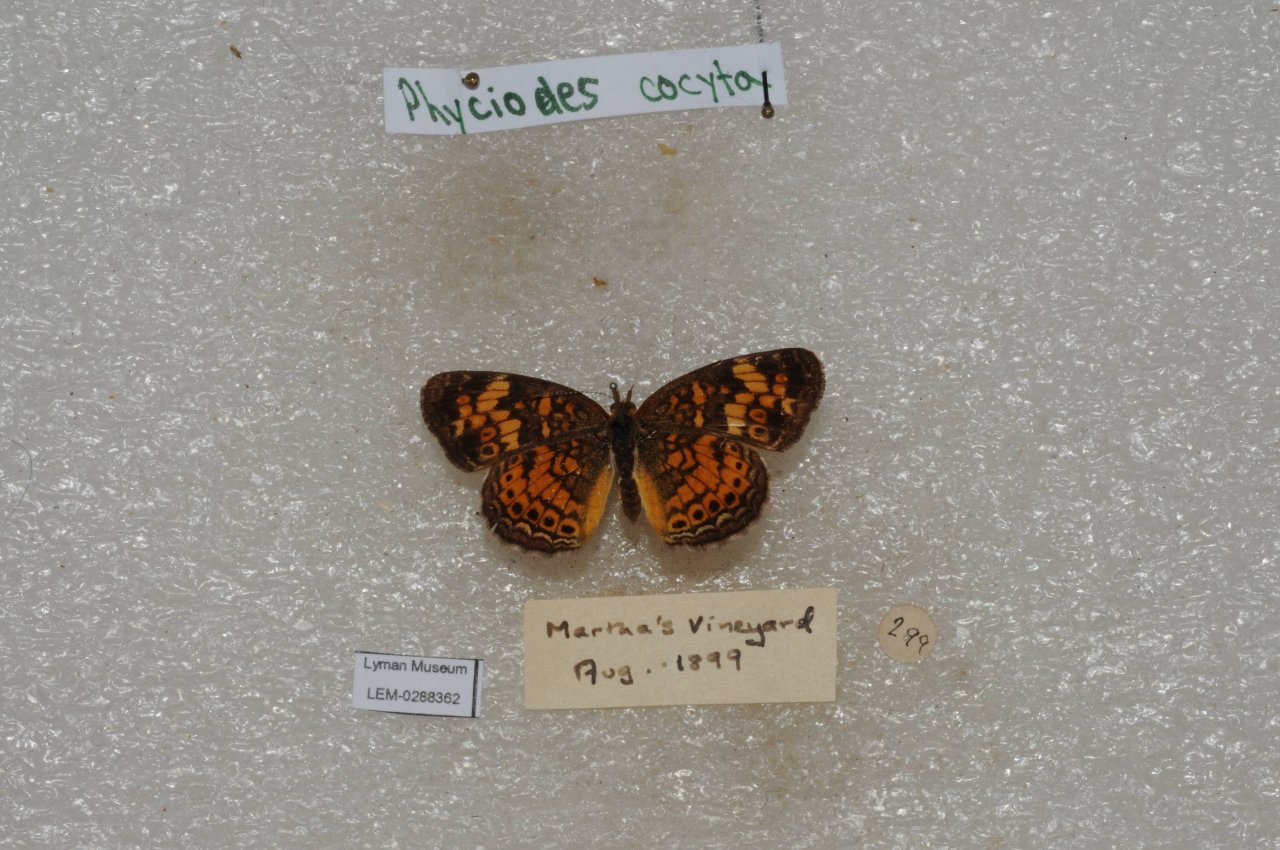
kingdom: Animalia
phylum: Arthropoda
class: Insecta
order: Lepidoptera
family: Nymphalidae
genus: Phyciodes
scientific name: Phyciodes tharos
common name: Pearl Crescent
